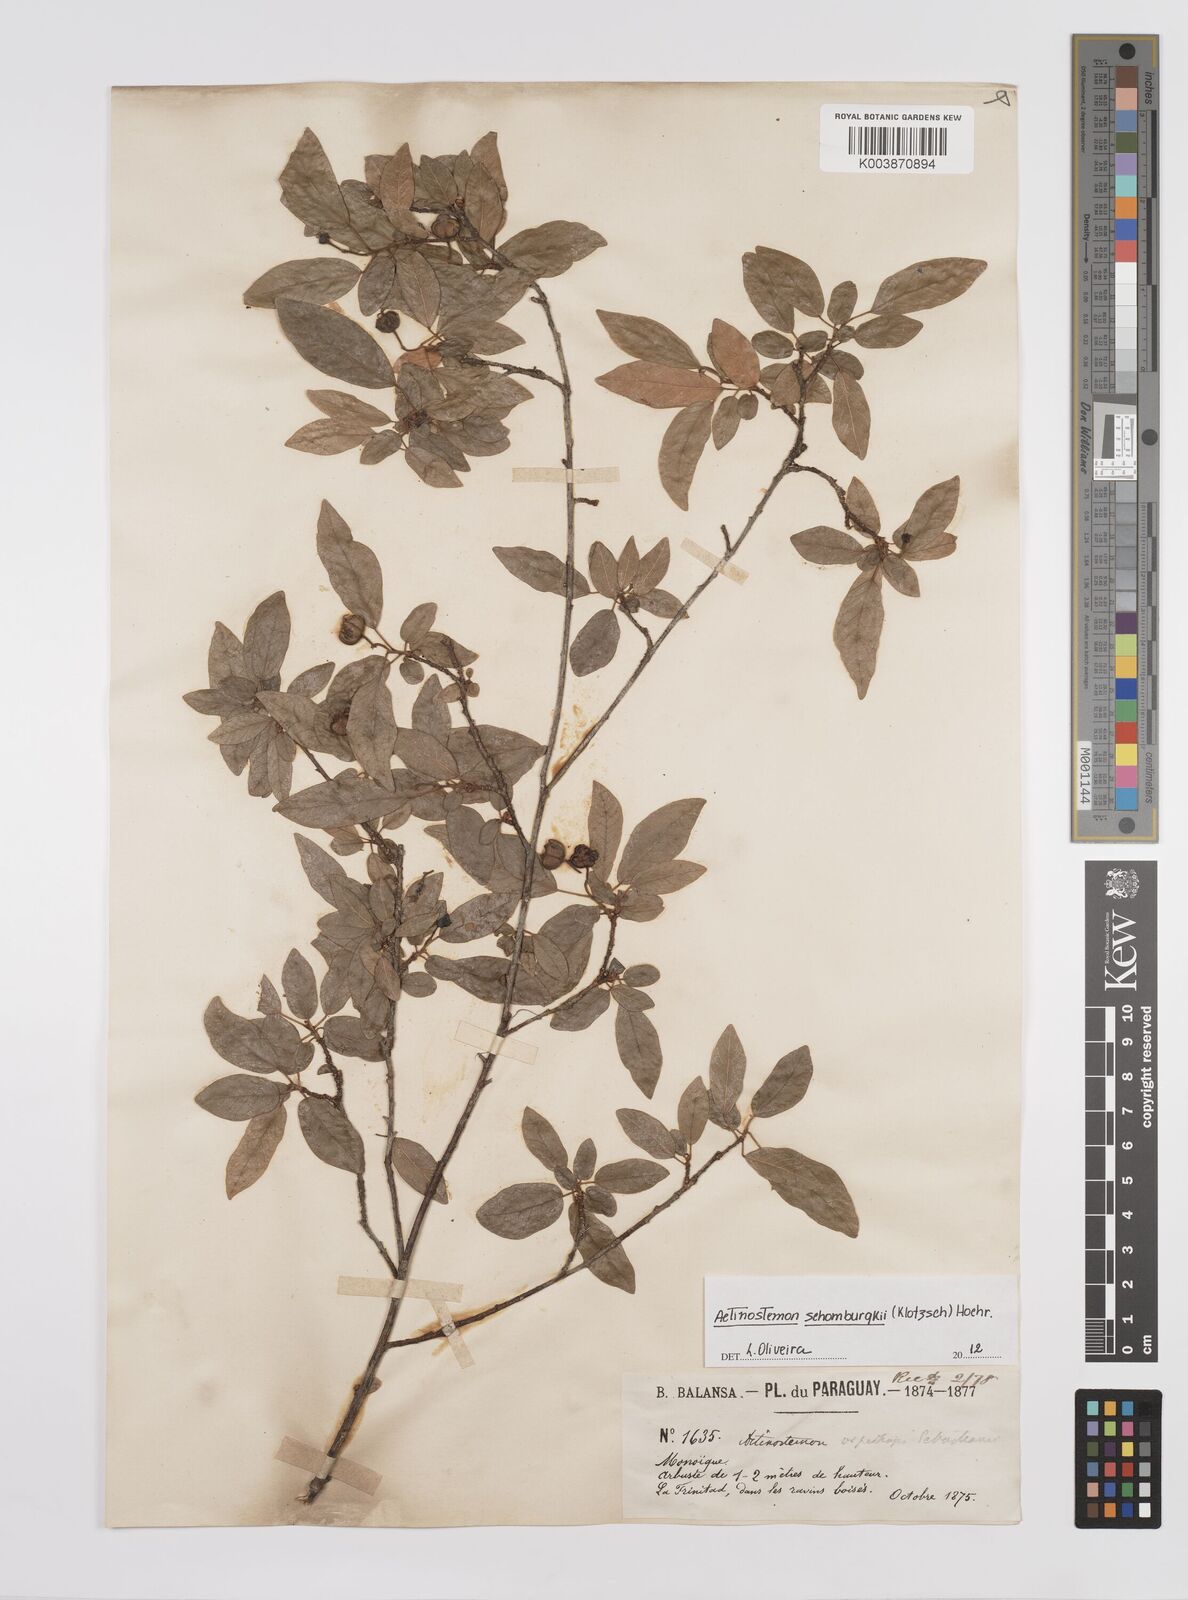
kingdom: Plantae
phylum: Tracheophyta
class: Magnoliopsida
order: Malpighiales
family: Euphorbiaceae
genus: Actinostemon
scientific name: Actinostemon schomburgkii
